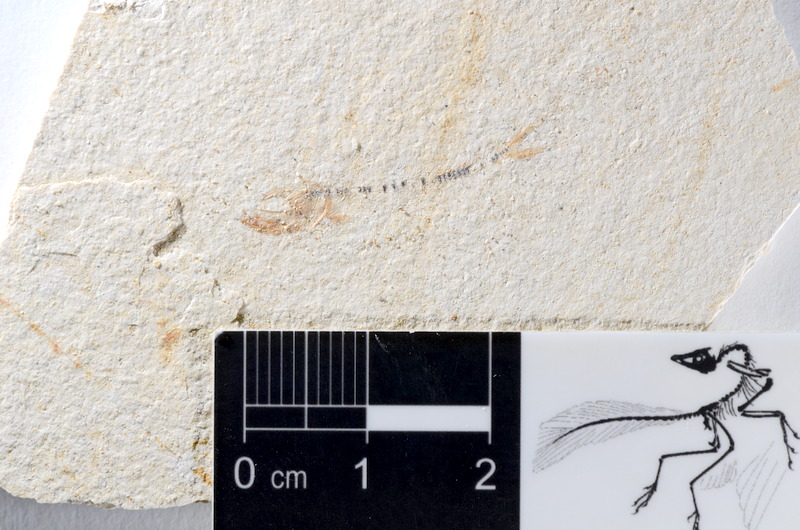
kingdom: Animalia
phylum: Chordata
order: Salmoniformes
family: Orthogonikleithridae
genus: Orthogonikleithrus
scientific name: Orthogonikleithrus hoelli
